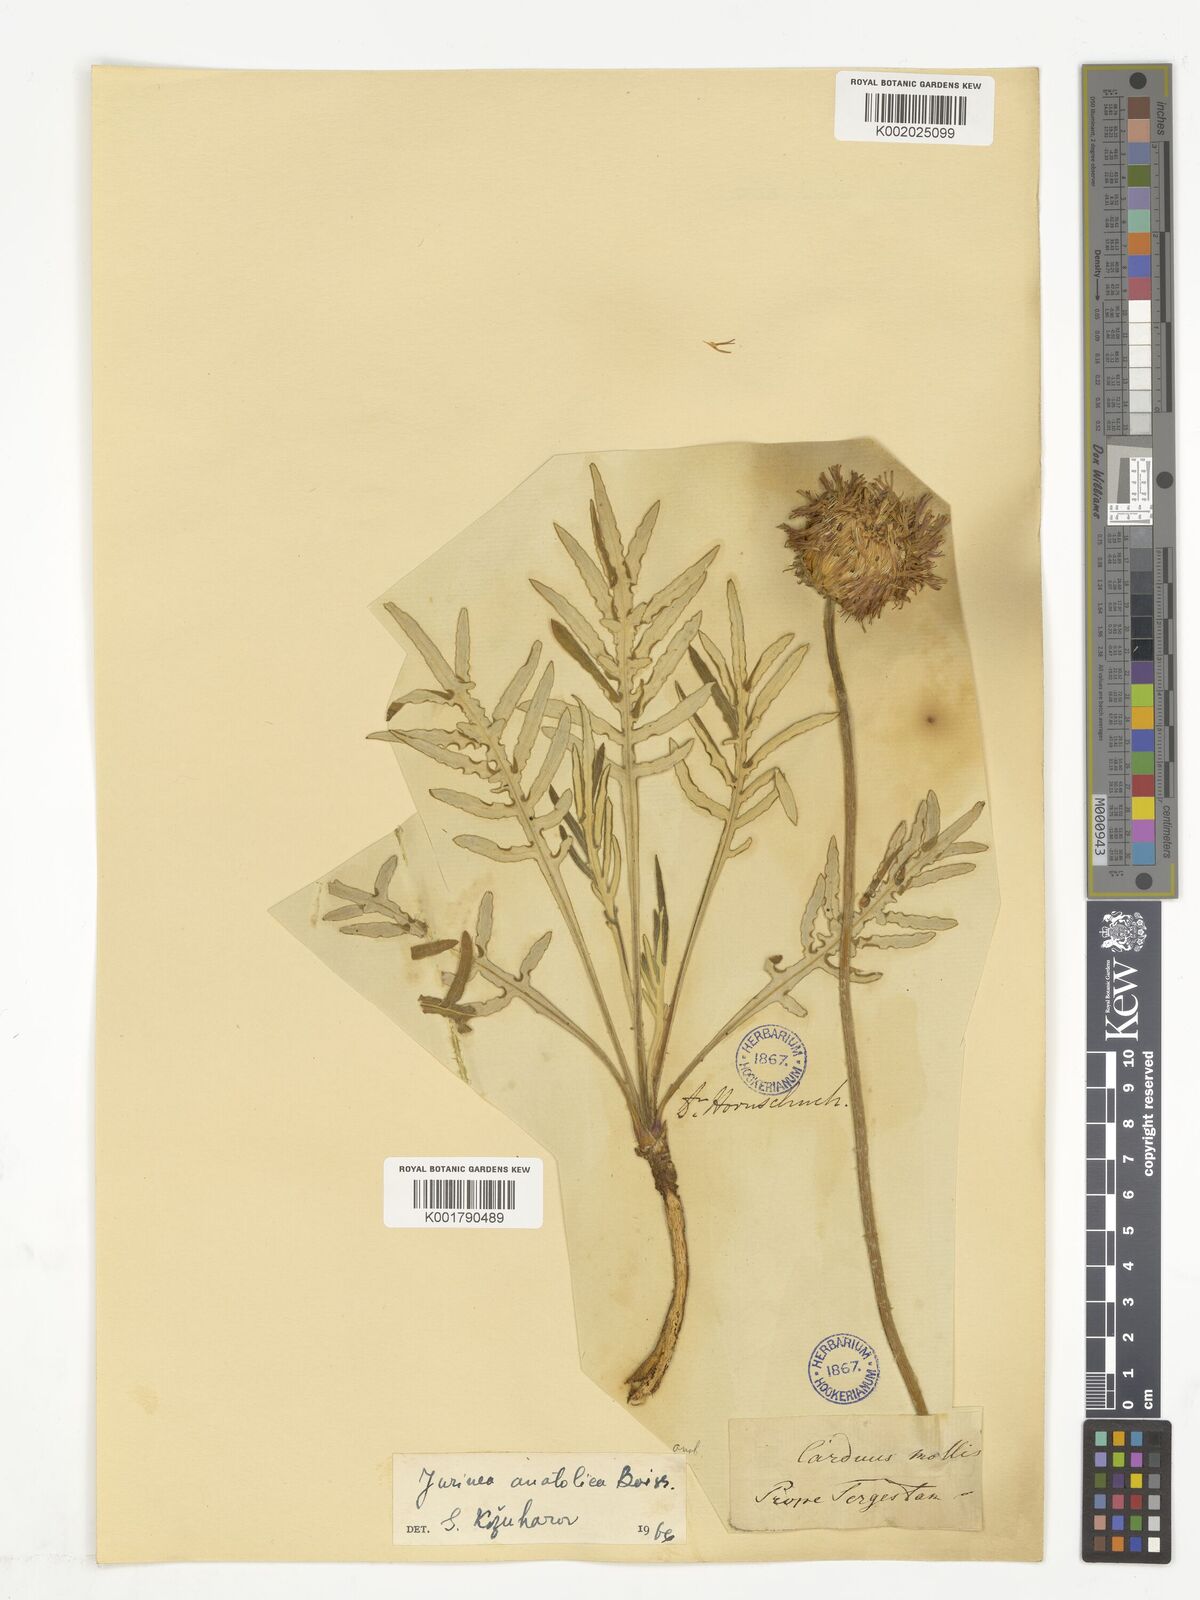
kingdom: Plantae
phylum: Tracheophyta
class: Magnoliopsida
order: Asterales
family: Asteraceae
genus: Jurinea
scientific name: Jurinea arachnoidea
